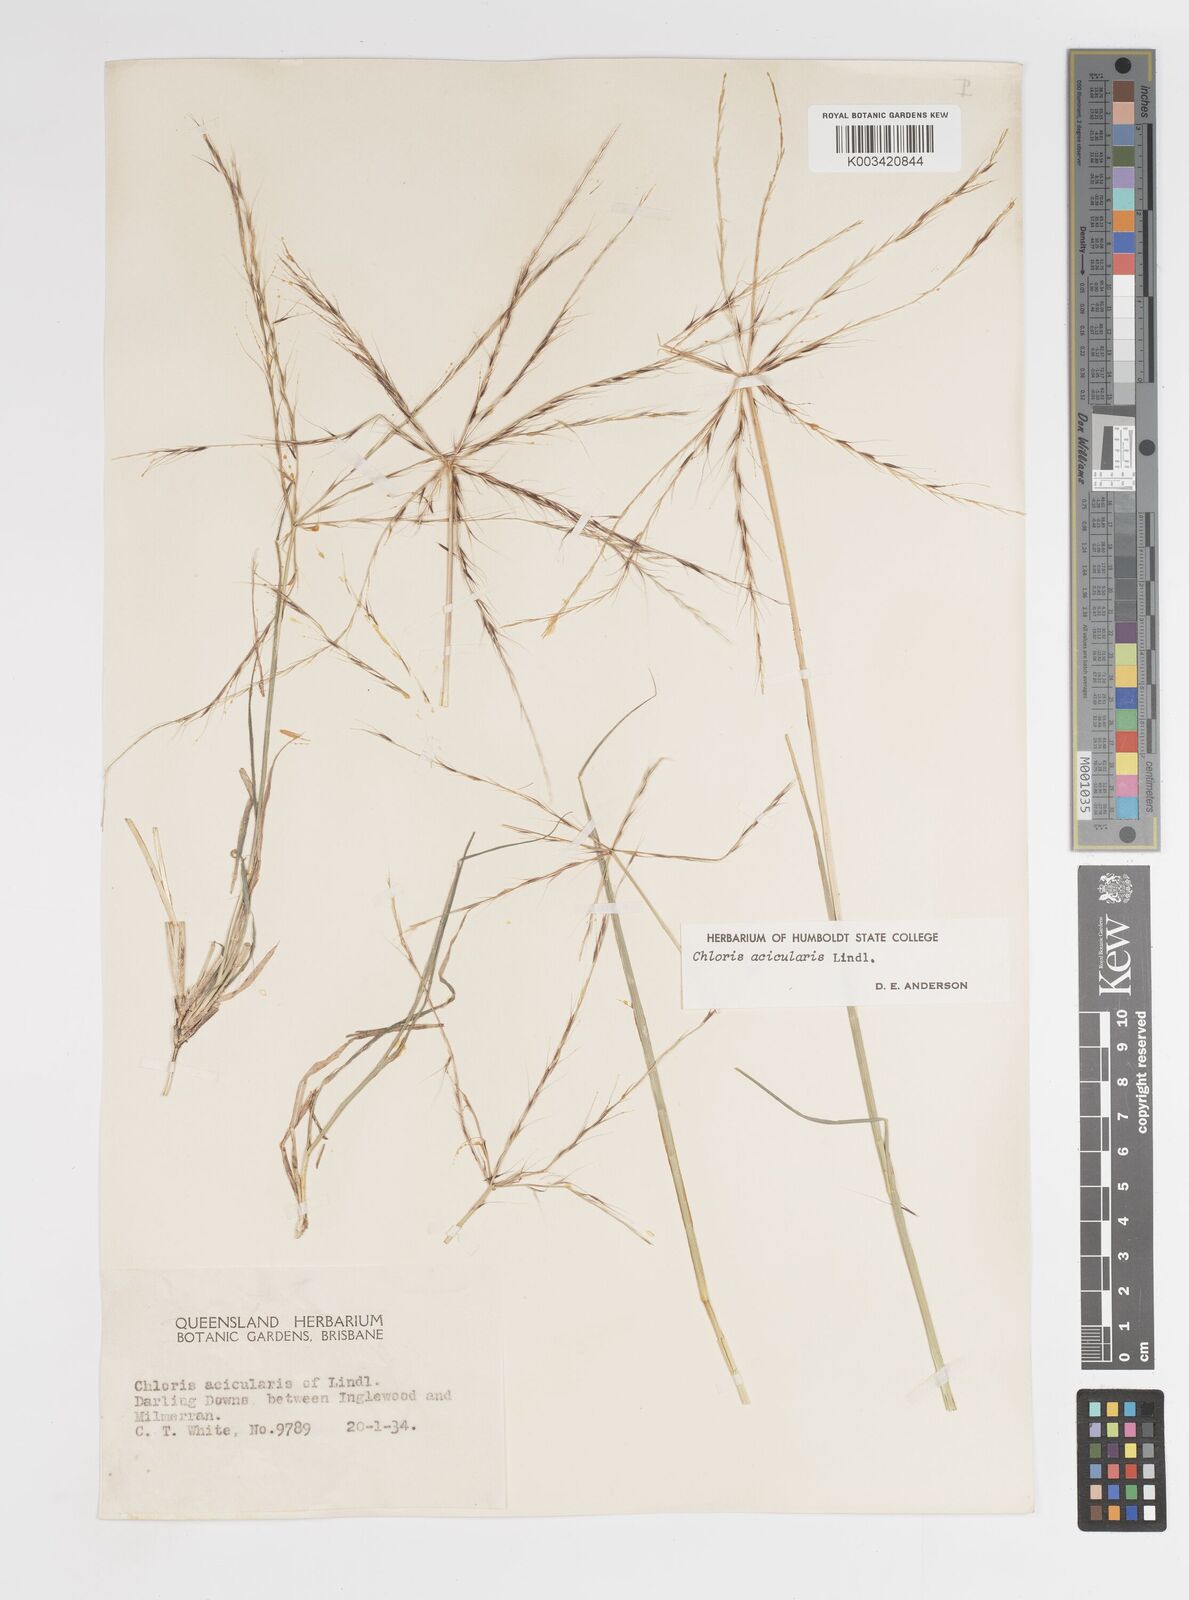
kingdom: Plantae
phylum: Tracheophyta
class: Liliopsida
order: Poales
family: Poaceae
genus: Enteropogon
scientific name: Enteropogon acicularis
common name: Curly windmill grass
